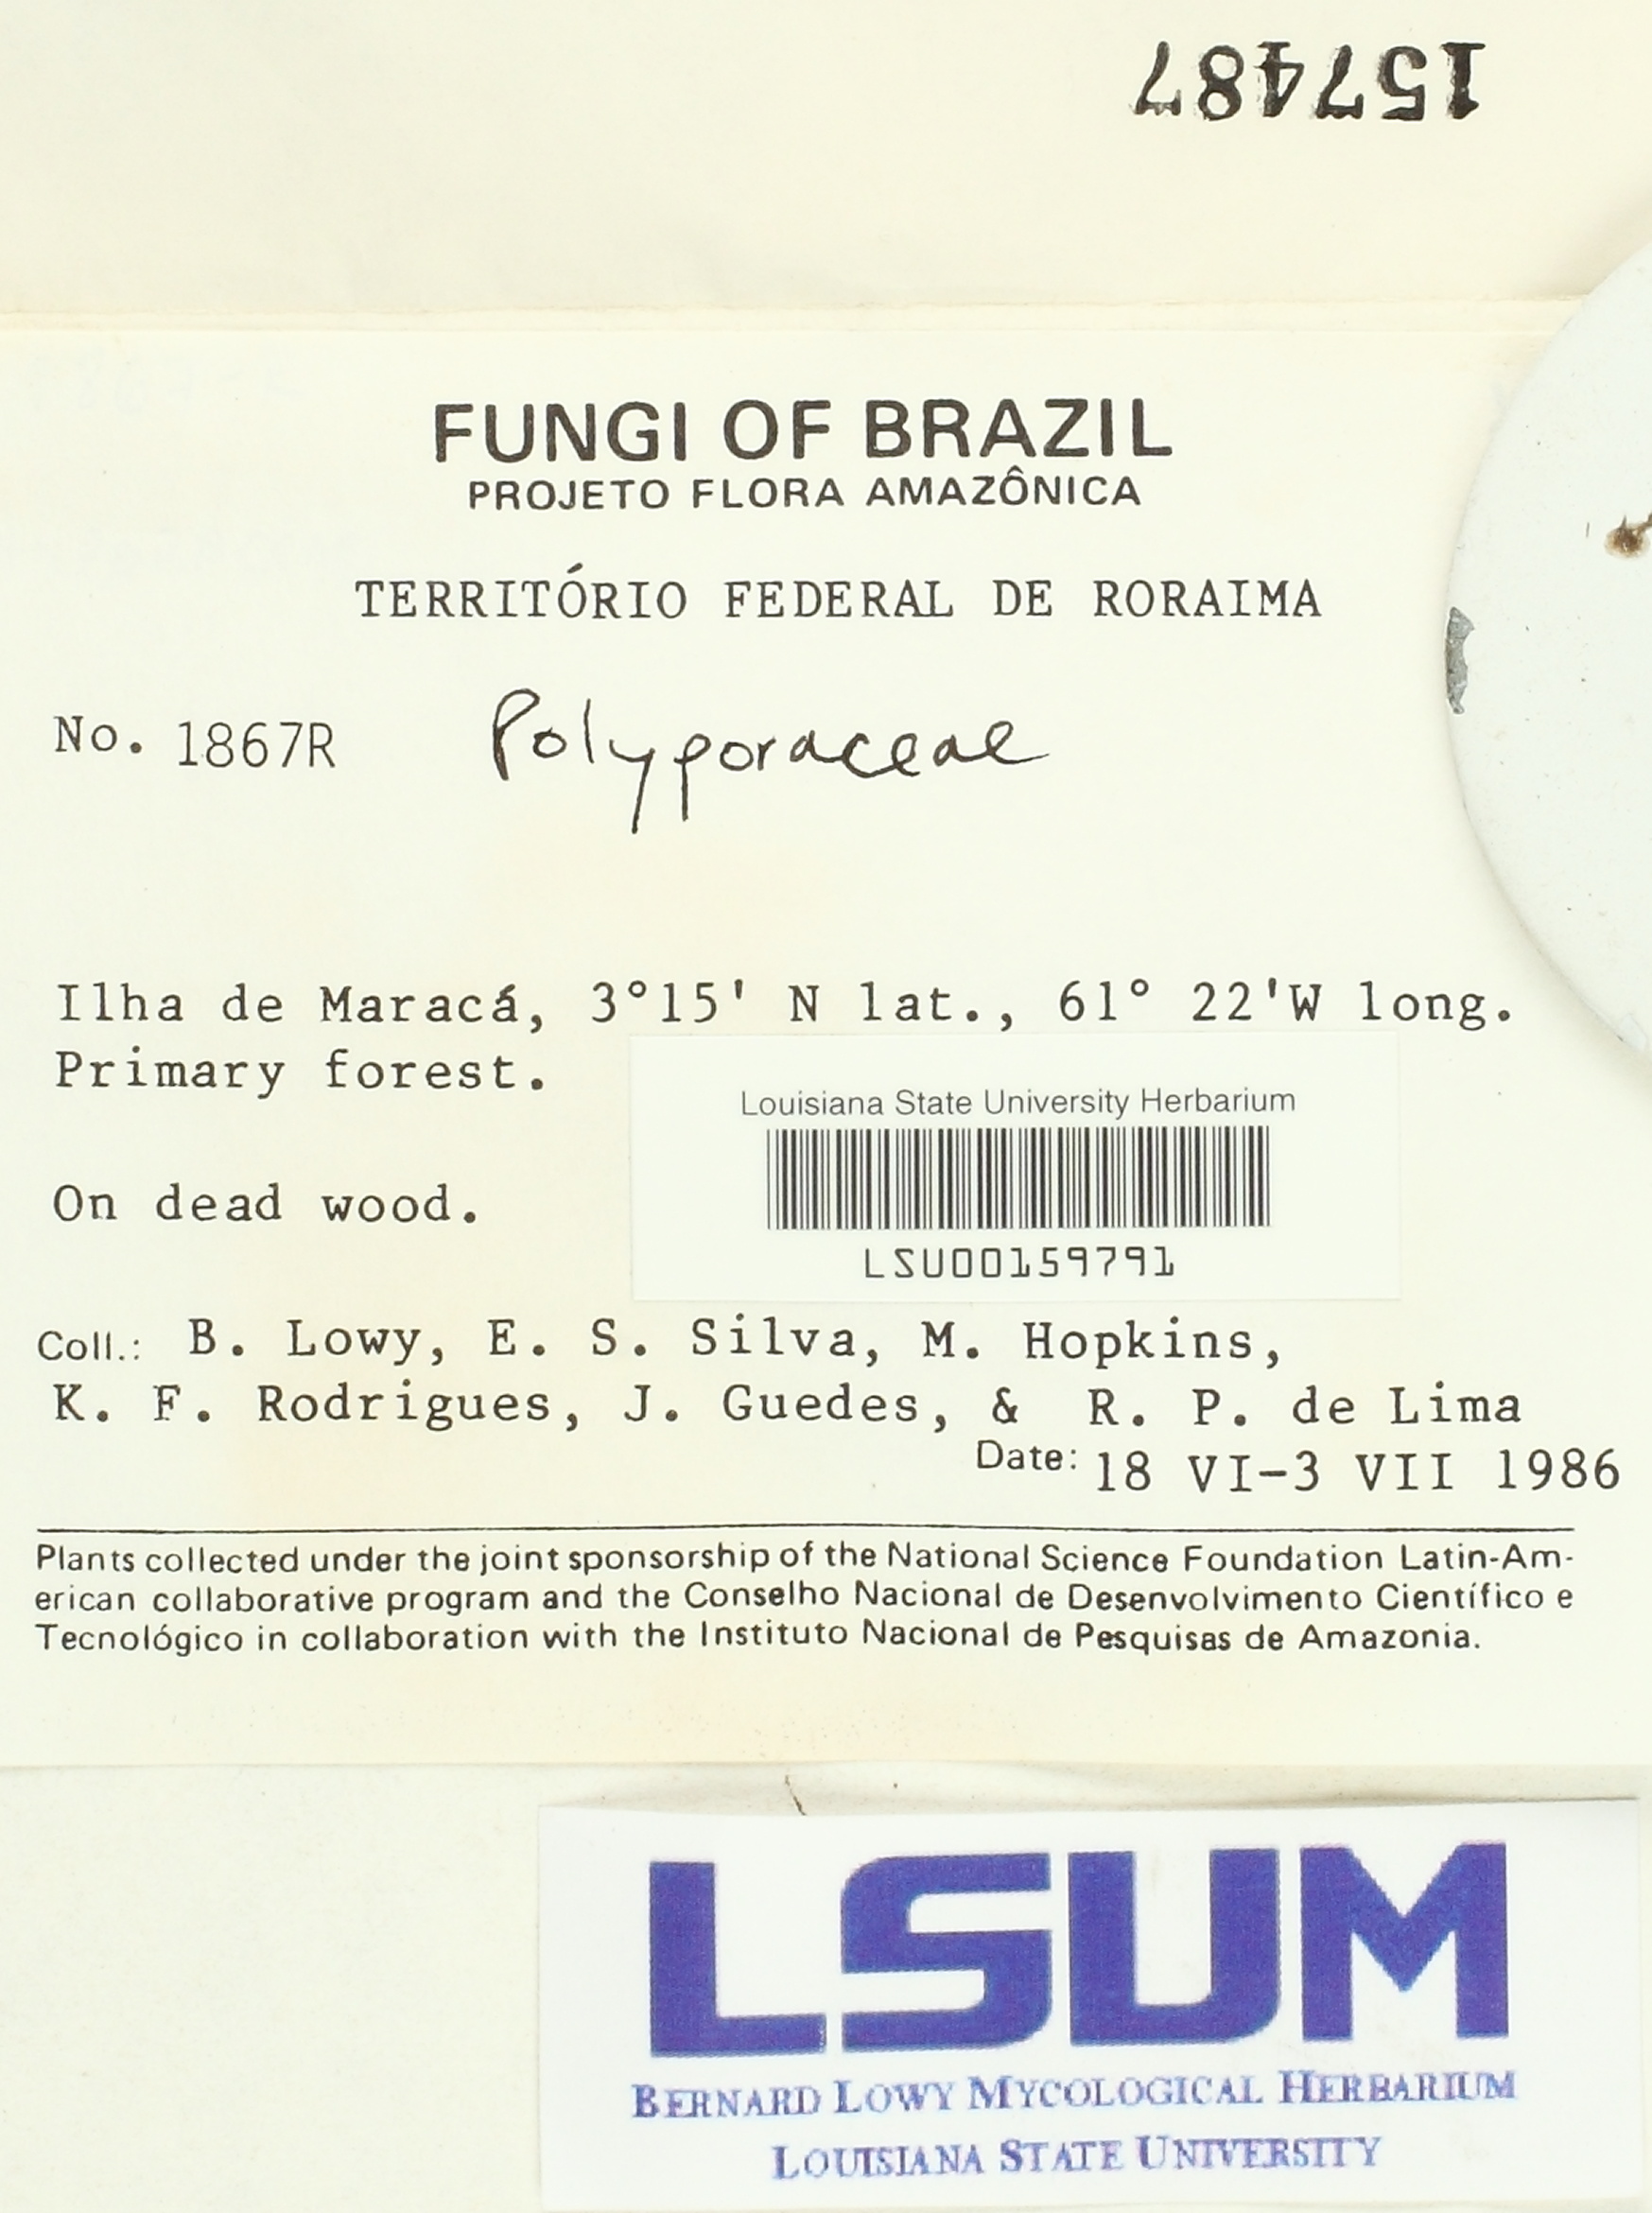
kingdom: Fungi
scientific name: Fungi
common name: Fungi
